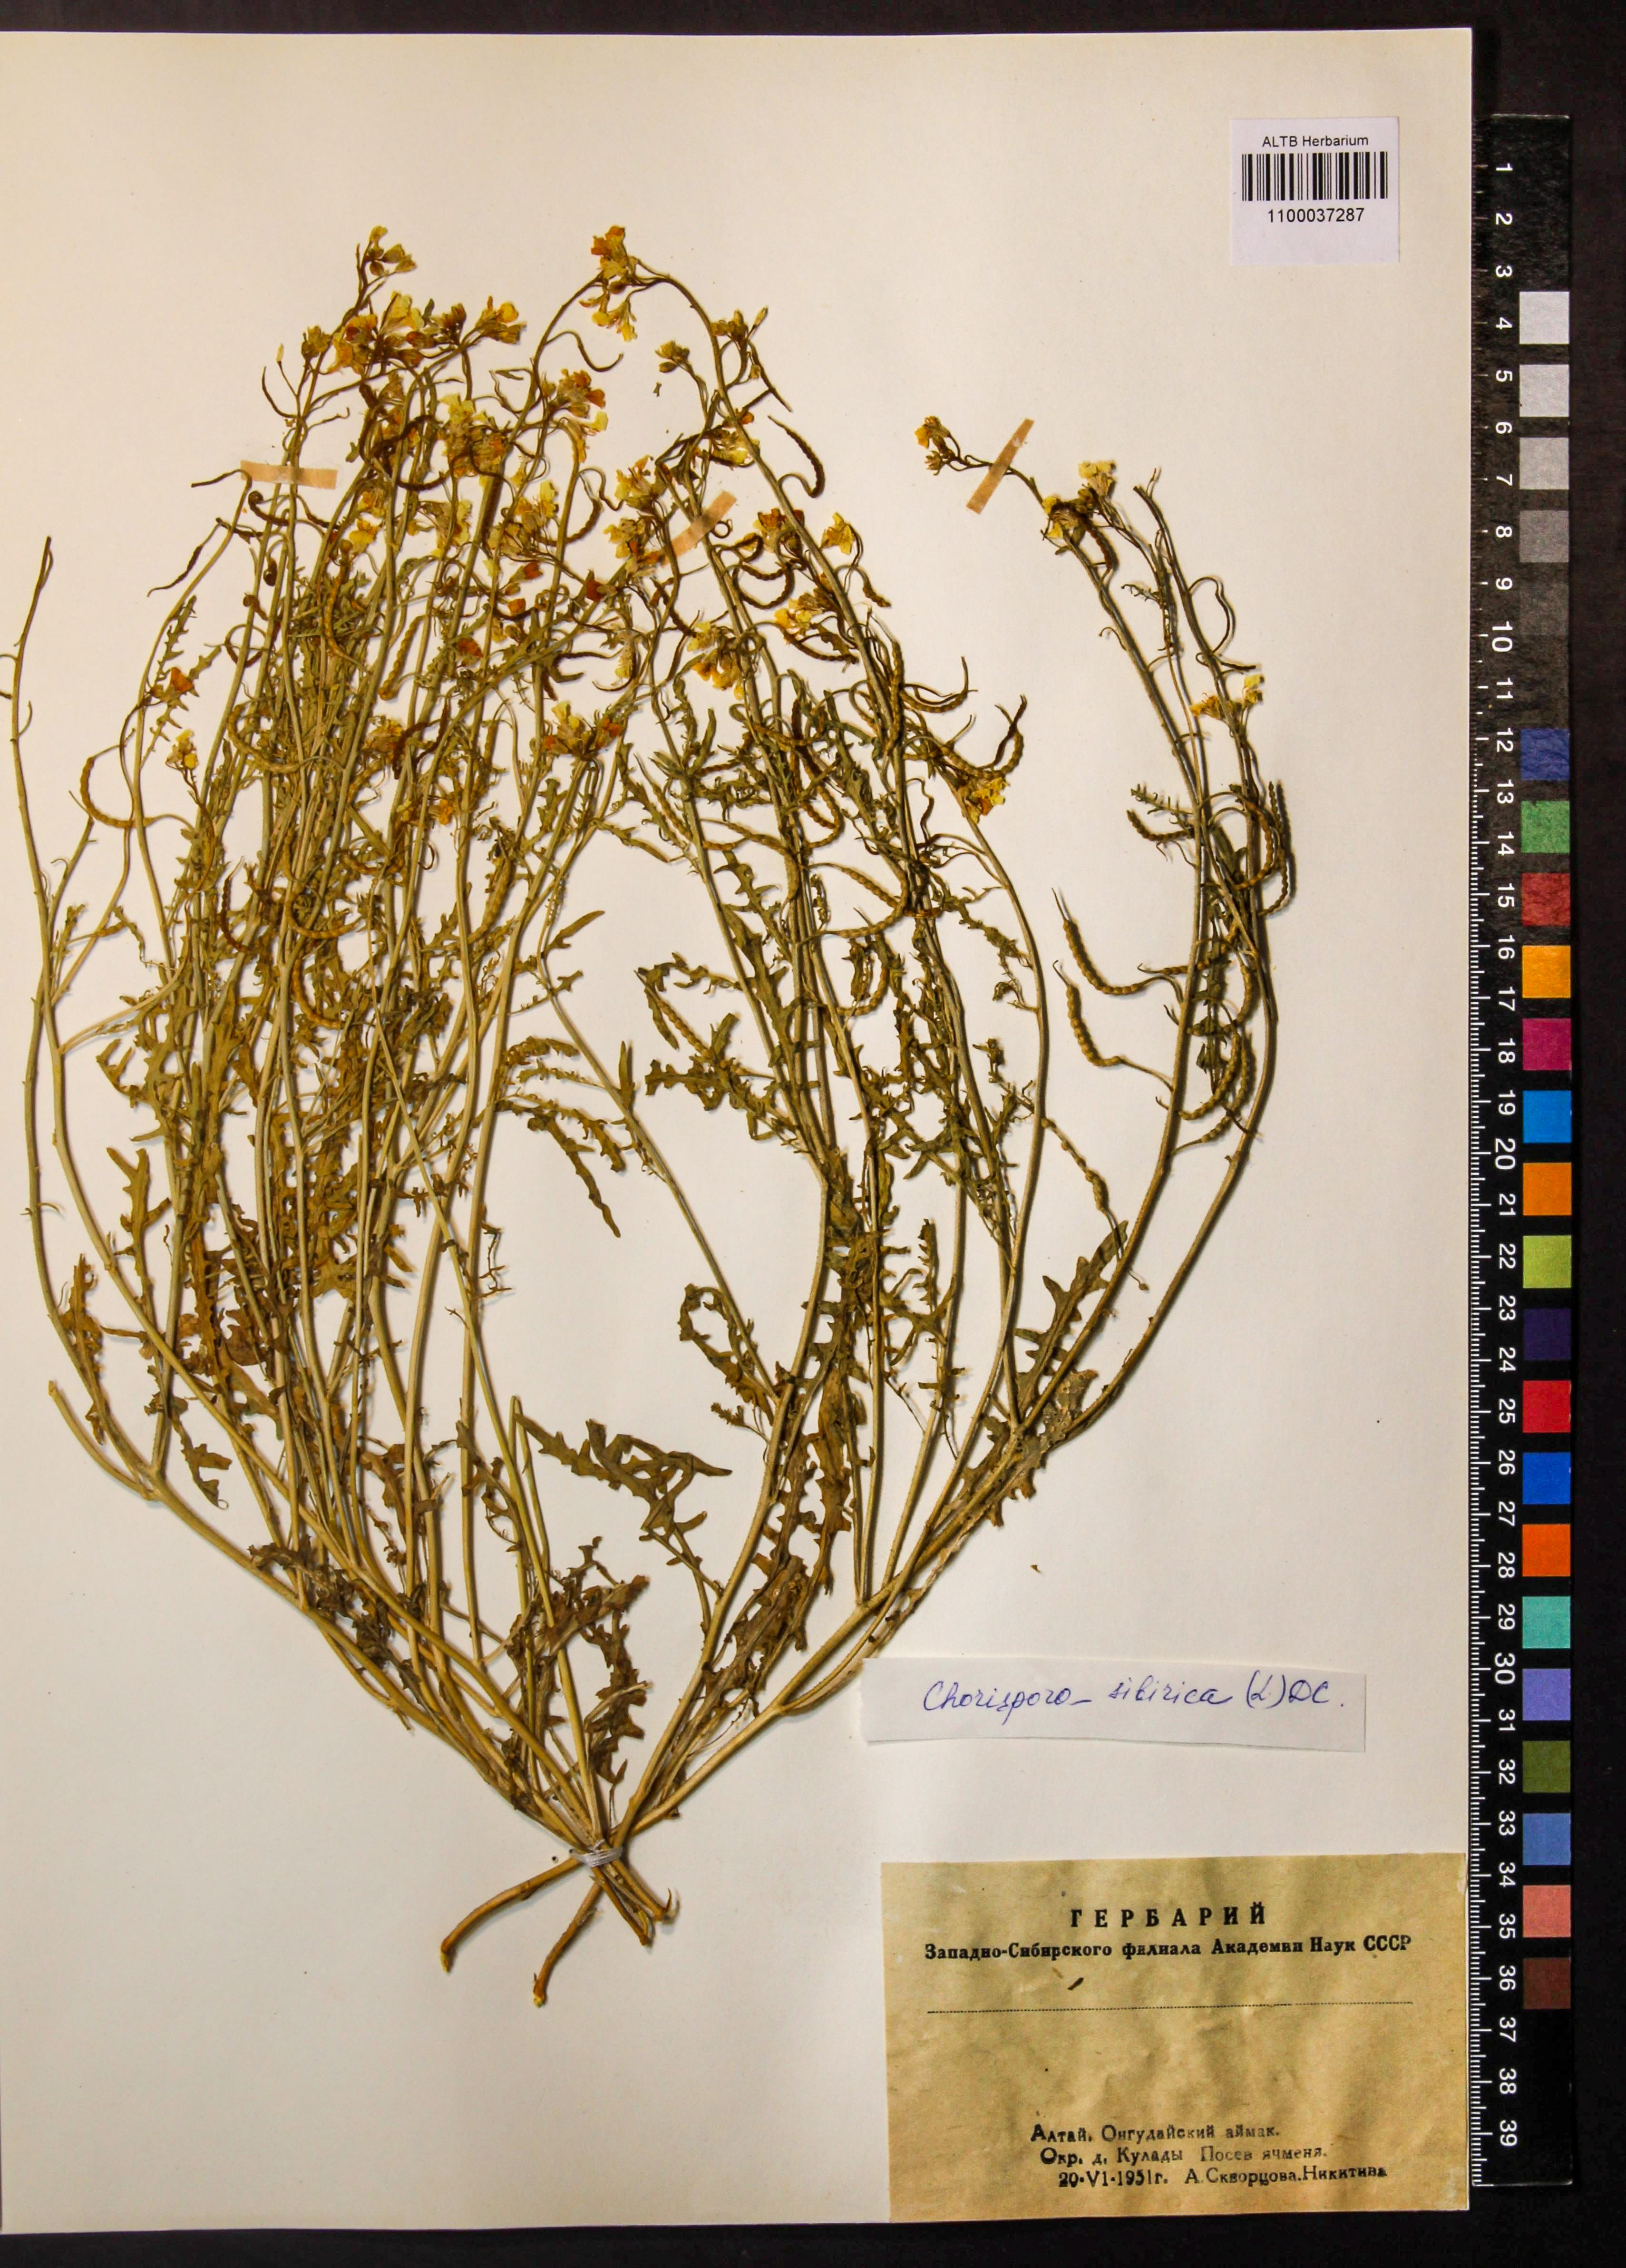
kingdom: Plantae
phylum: Tracheophyta
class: Magnoliopsida
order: Brassicales
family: Brassicaceae
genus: Chorispora
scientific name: Chorispora sibirica
